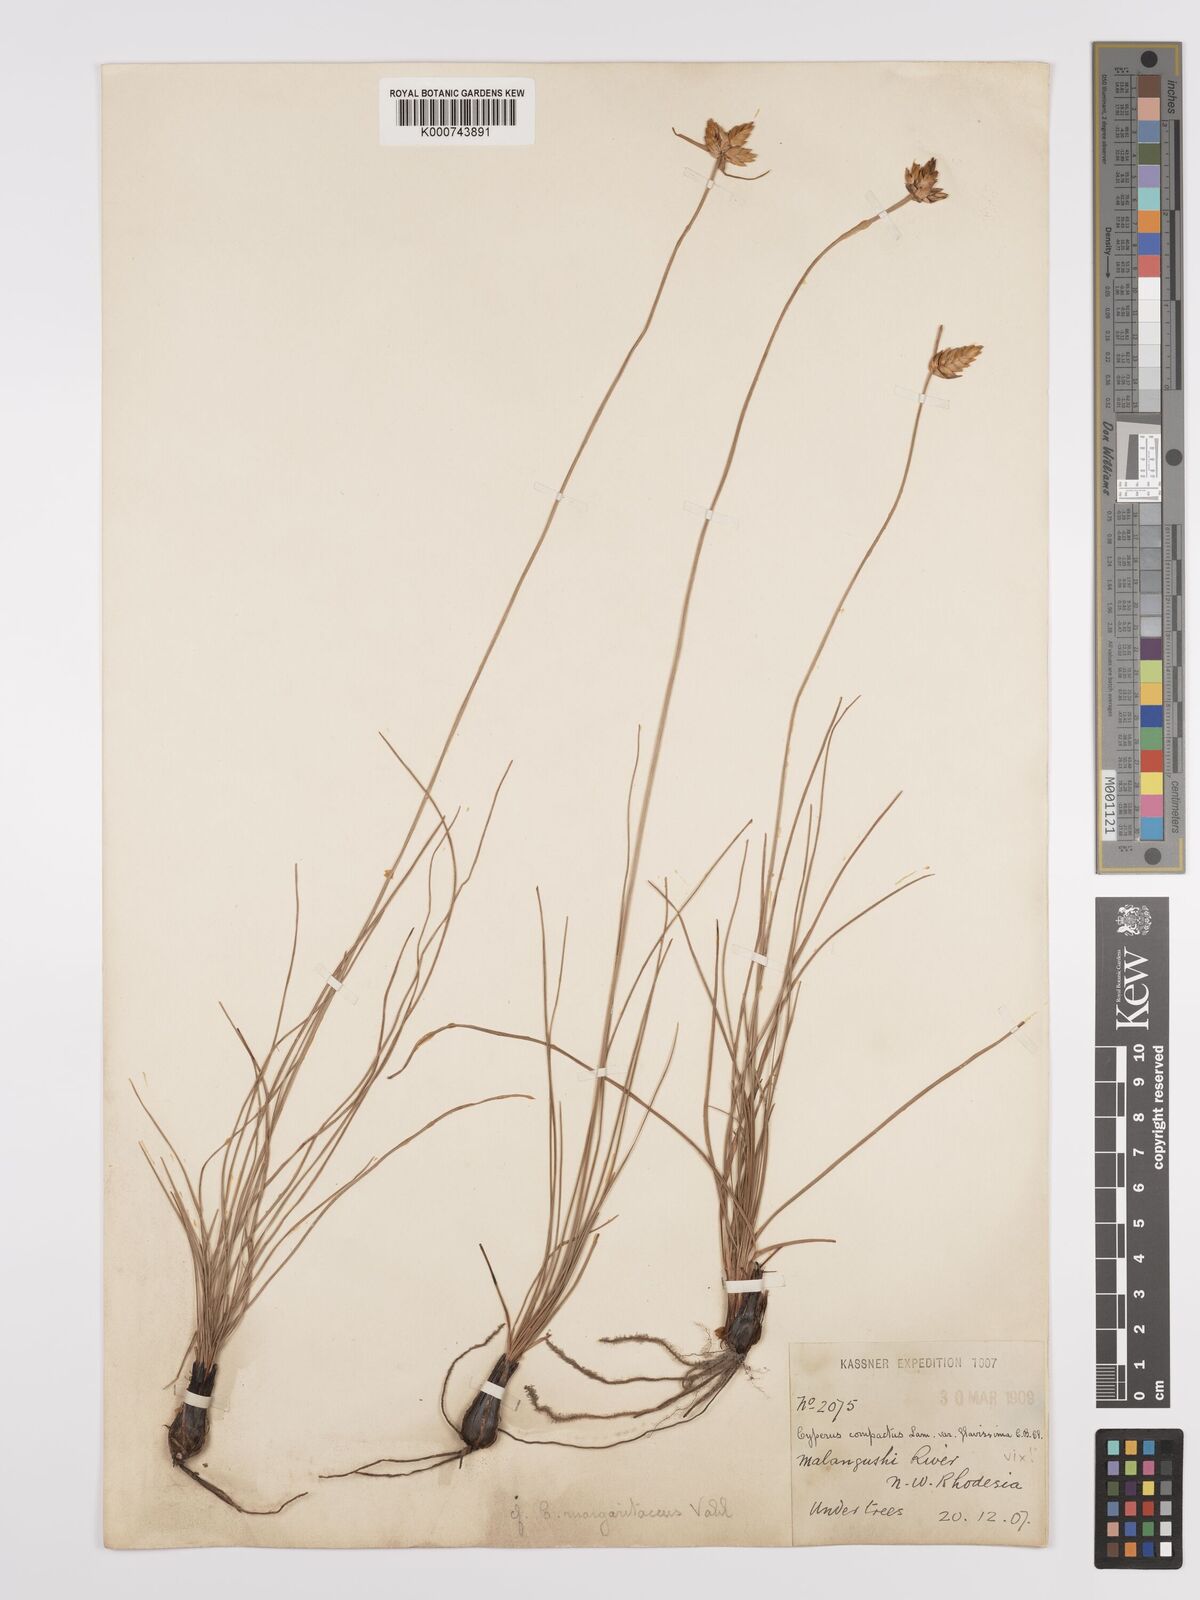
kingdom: Plantae
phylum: Tracheophyta
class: Liliopsida
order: Poales
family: Cyperaceae
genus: Cyperus
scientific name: Cyperus margaritaceus
